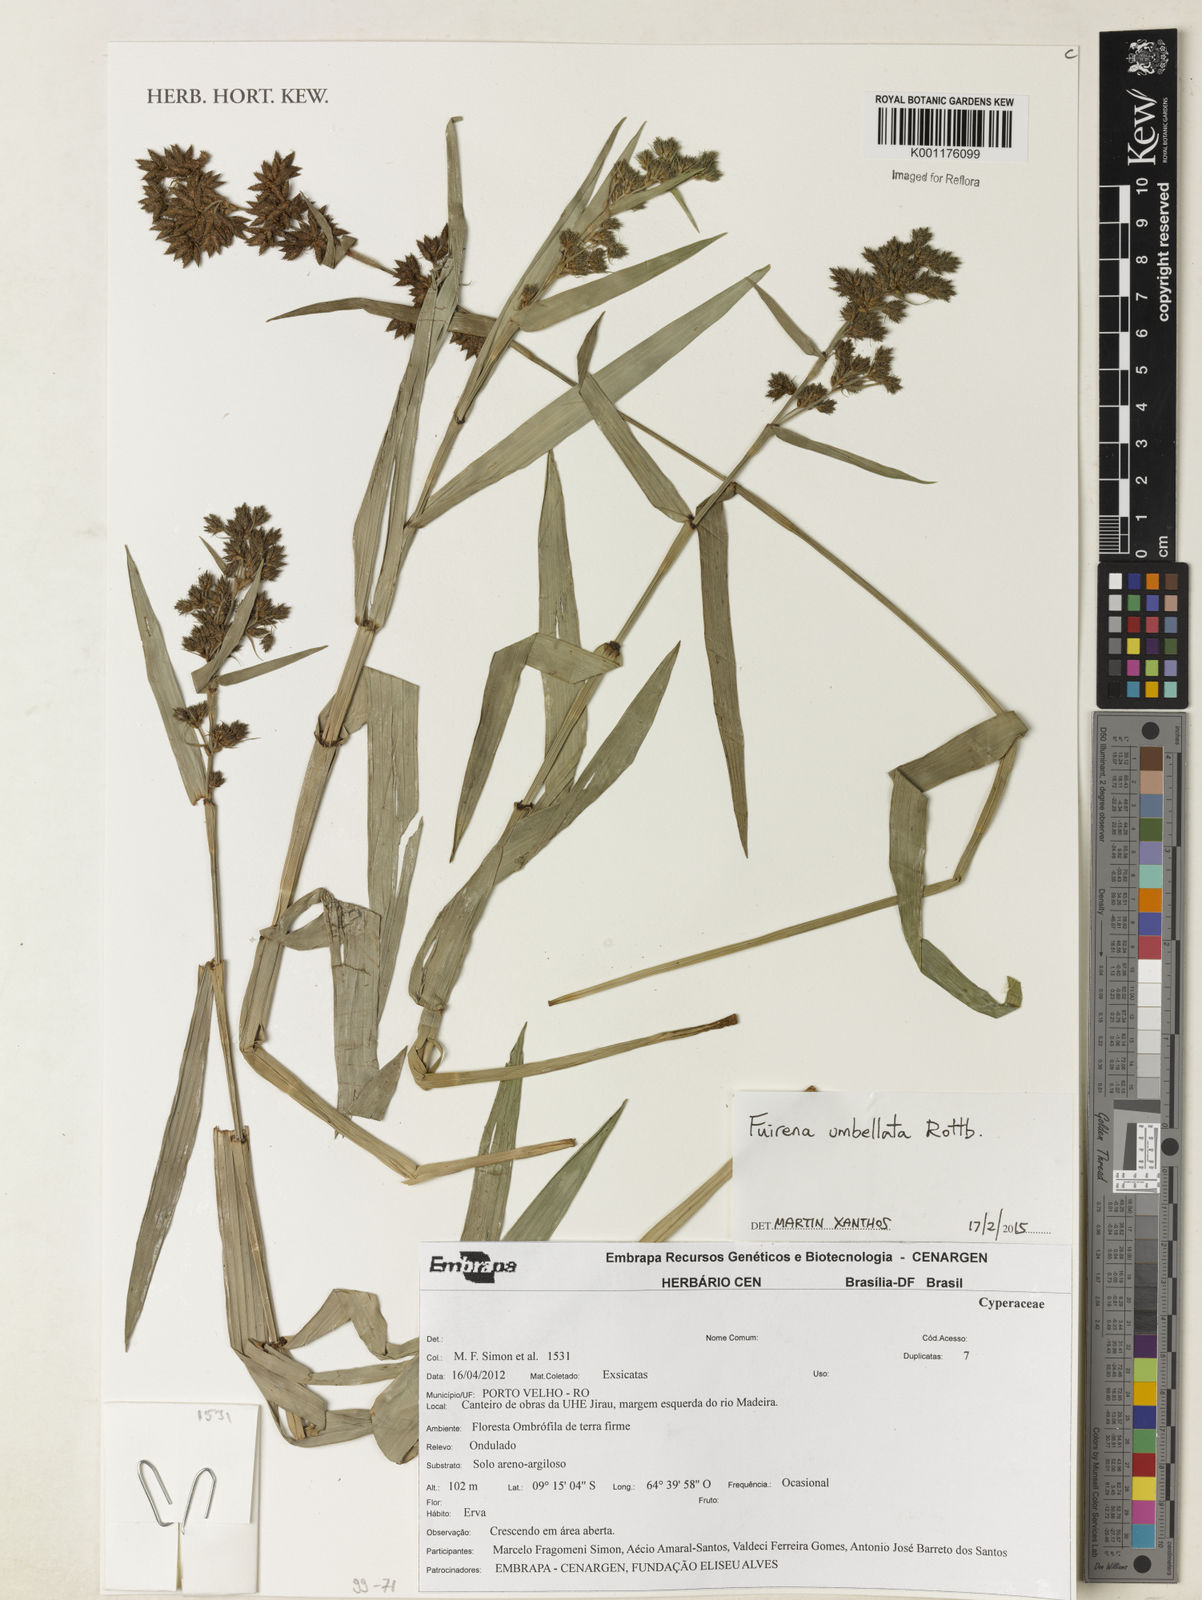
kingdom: Plantae
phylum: Tracheophyta
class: Liliopsida
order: Poales
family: Cyperaceae
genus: Fuirena
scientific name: Fuirena umbellata
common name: Yefen
